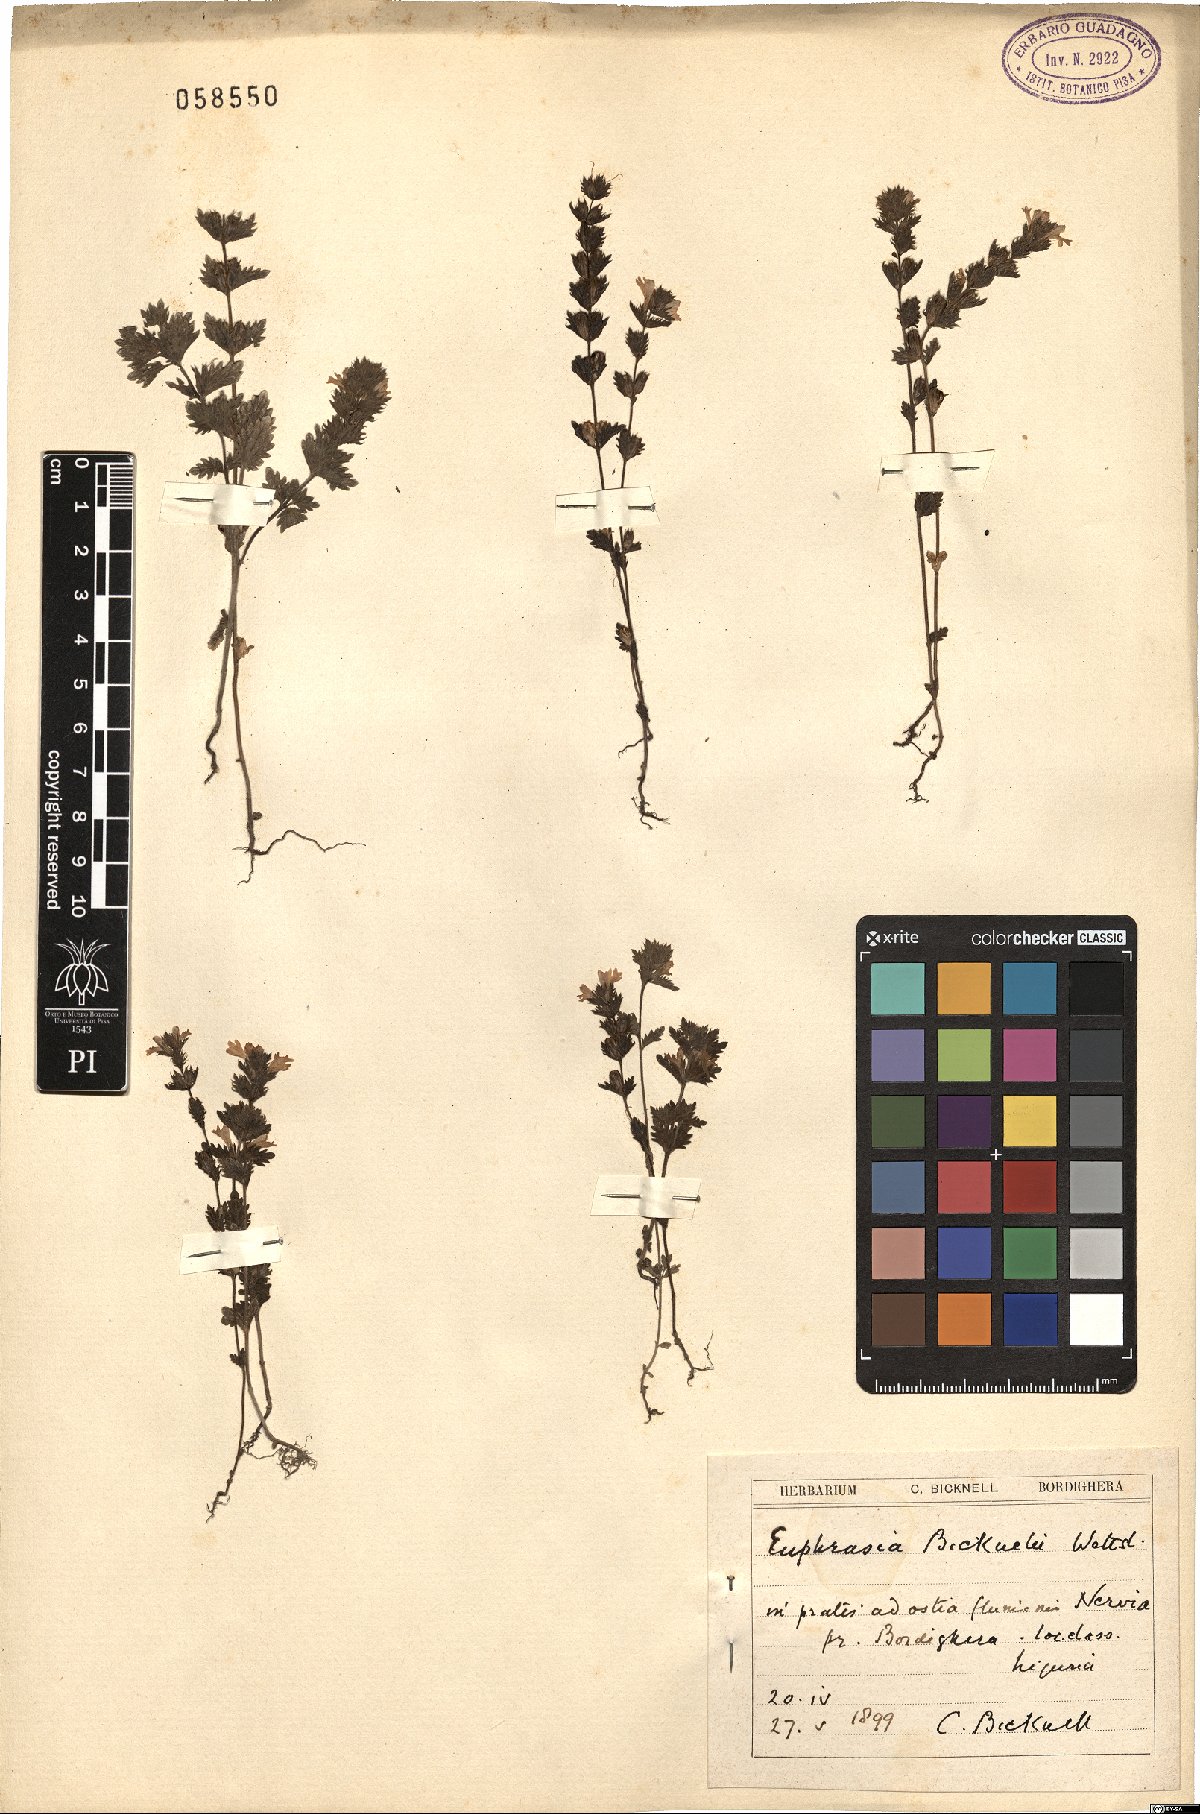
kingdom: Plantae
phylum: Tracheophyta
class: Magnoliopsida
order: Lamiales
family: Orobanchaceae
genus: Euphrasia
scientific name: Euphrasia pectinata
